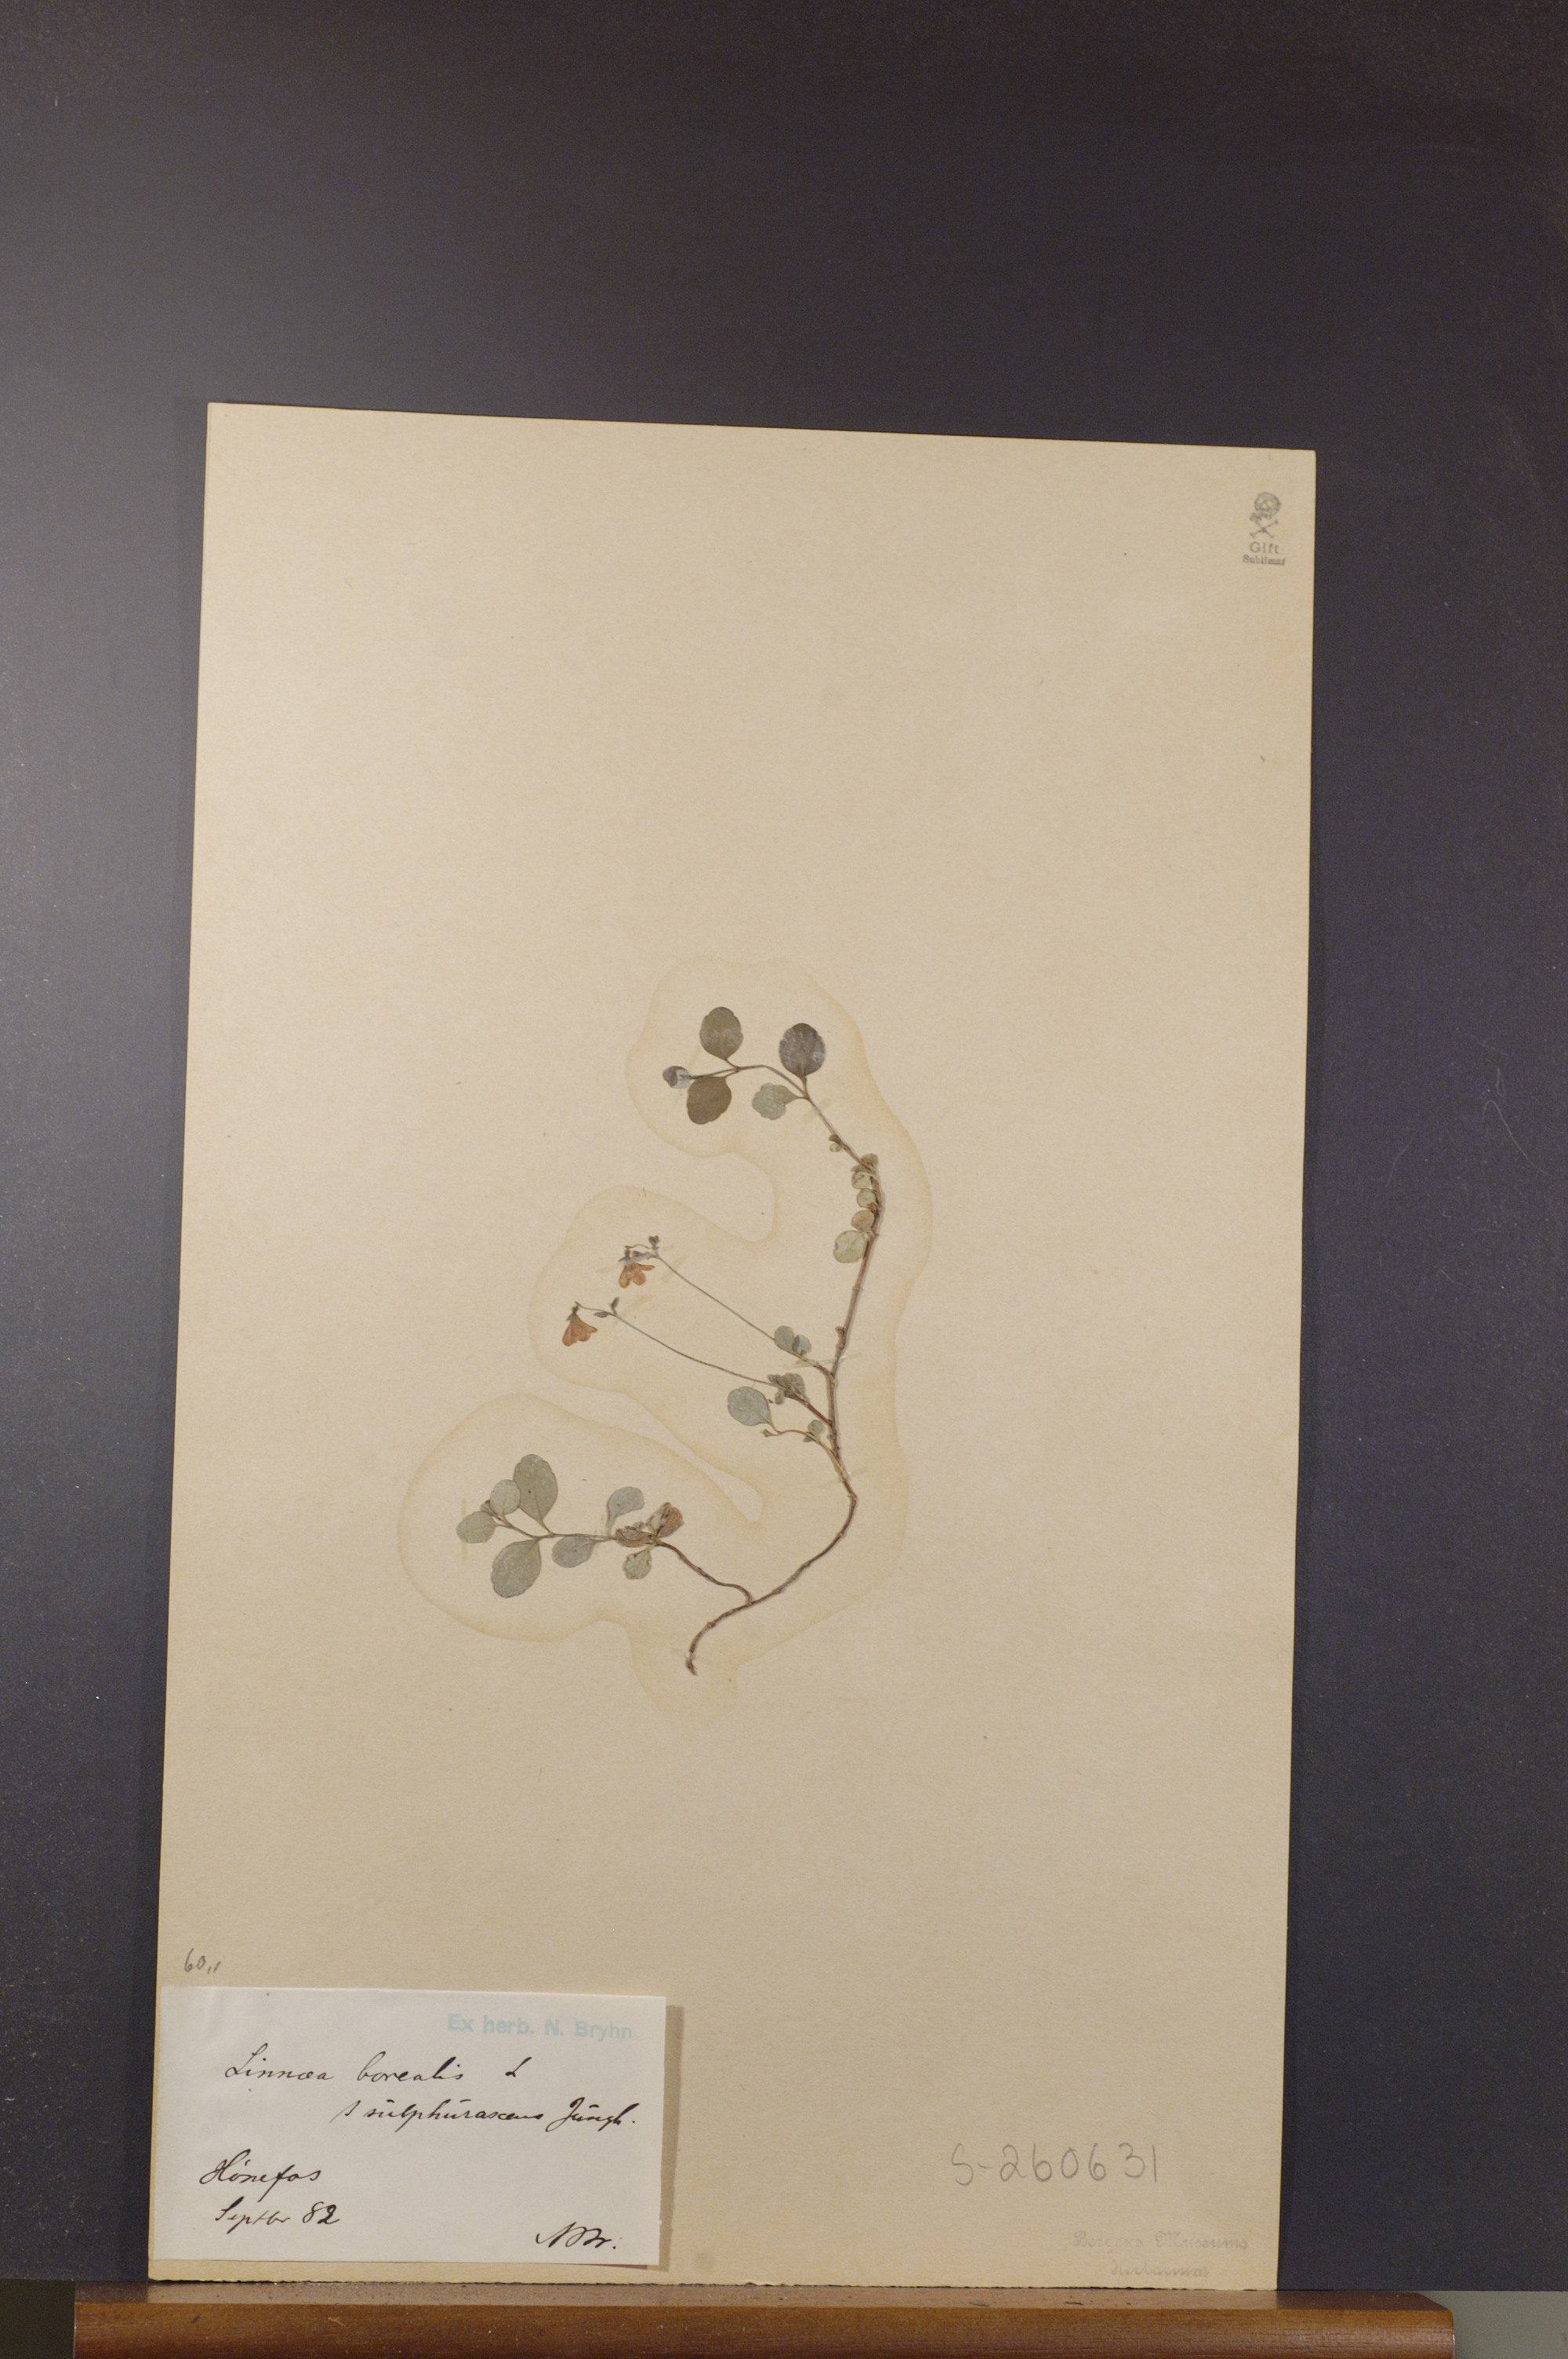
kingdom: Plantae
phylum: Tracheophyta
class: Magnoliopsida
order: Dipsacales
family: Caprifoliaceae
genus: Linnaea
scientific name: Linnaea borealis
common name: Twinflower
